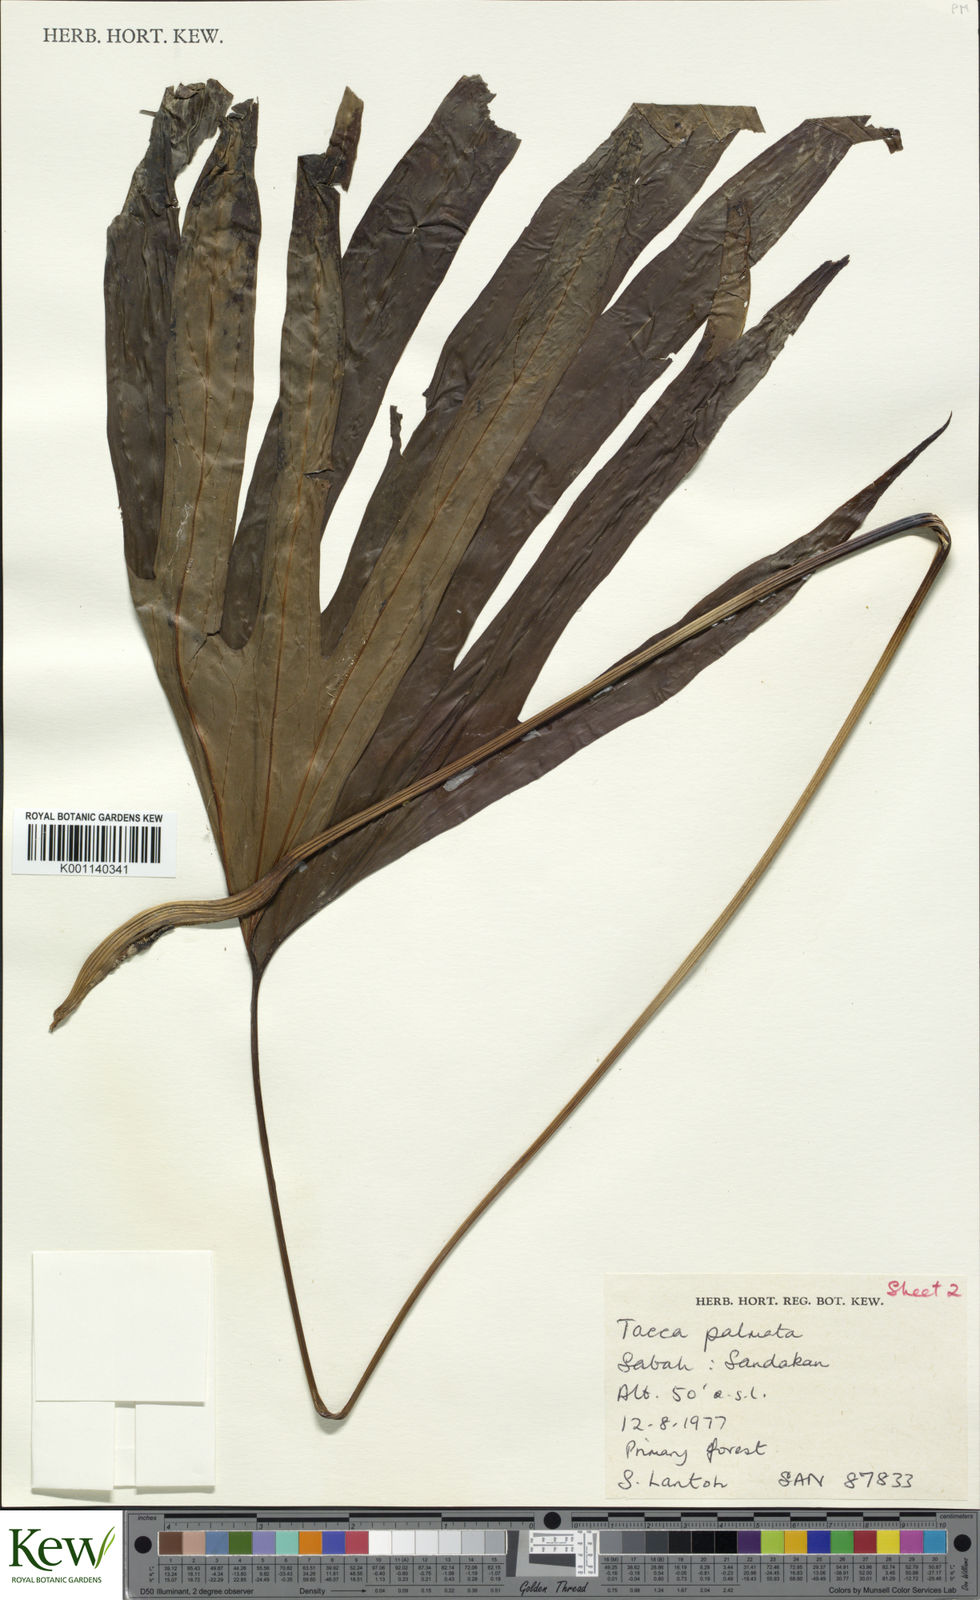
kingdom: Plantae
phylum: Tracheophyta
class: Liliopsida
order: Dioscoreales
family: Dioscoreaceae
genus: Tacca
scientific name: Tacca palmata
